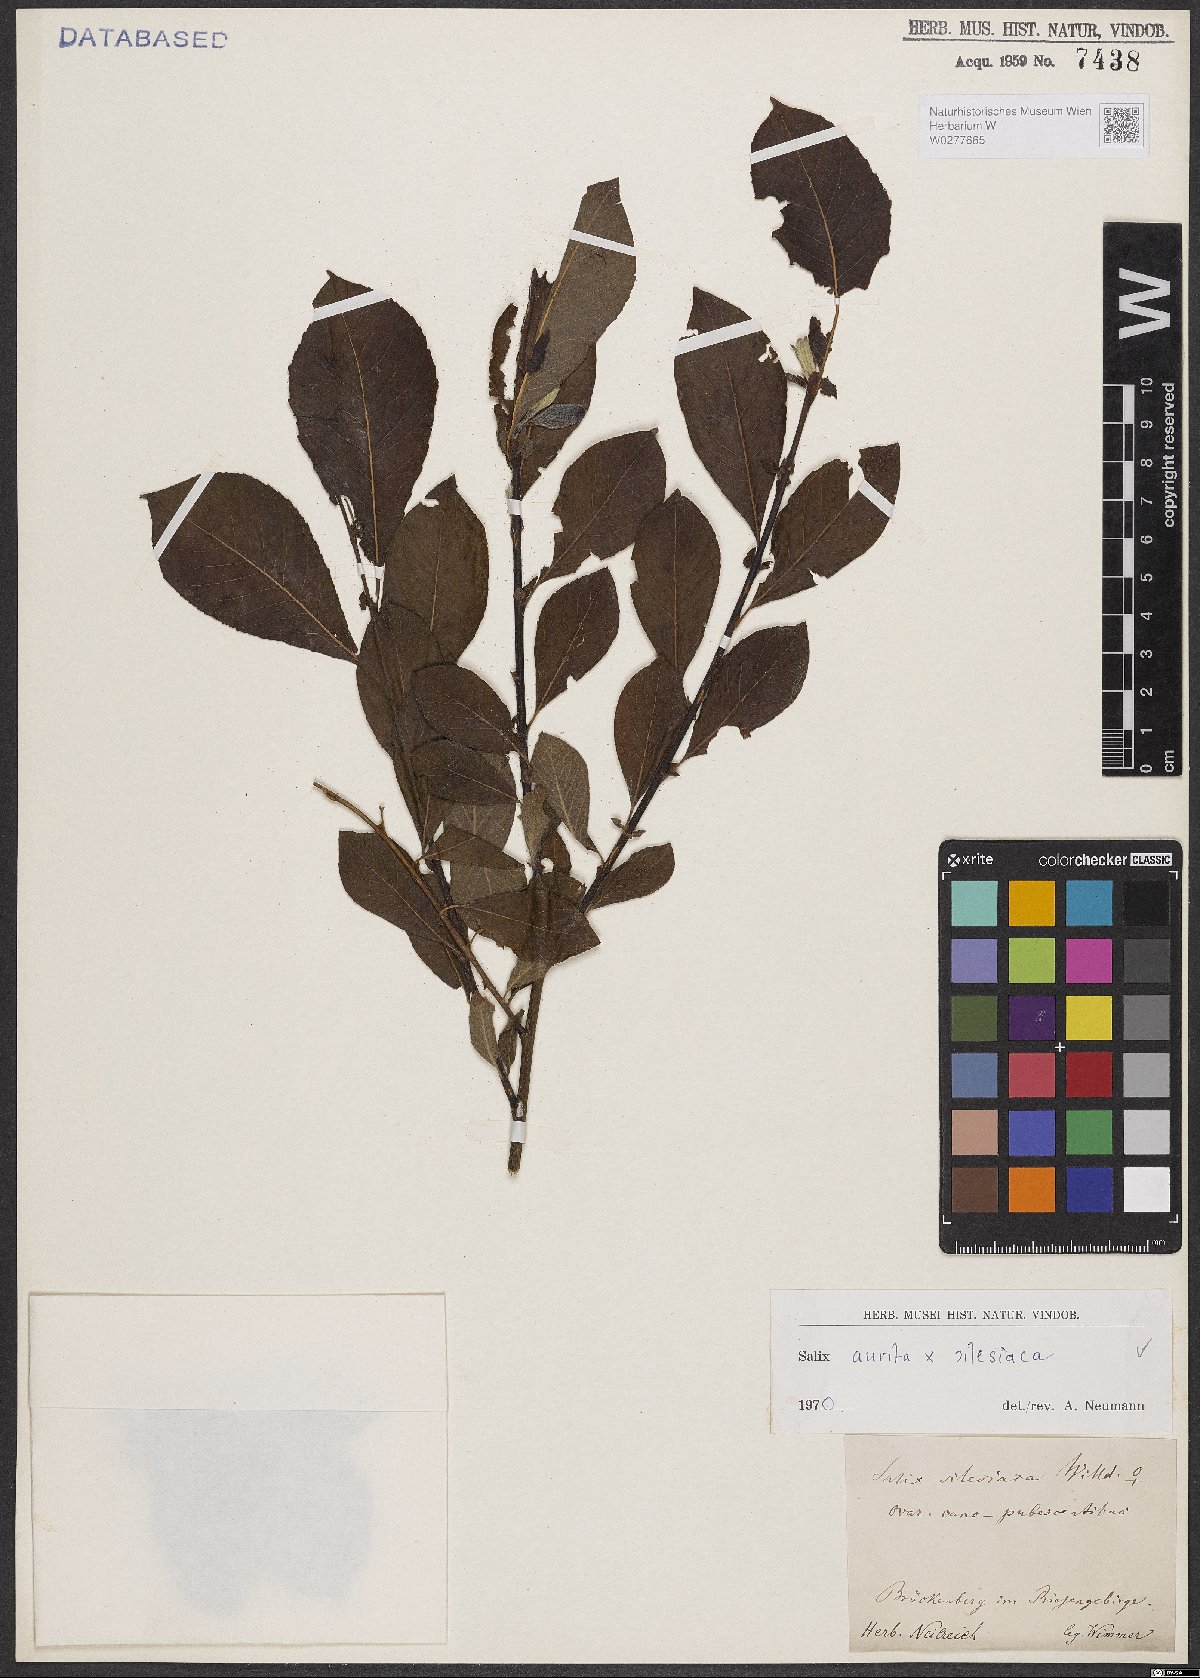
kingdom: Plantae
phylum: Tracheophyta
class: Magnoliopsida
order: Malpighiales
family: Salicaceae
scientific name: Salicaceae
